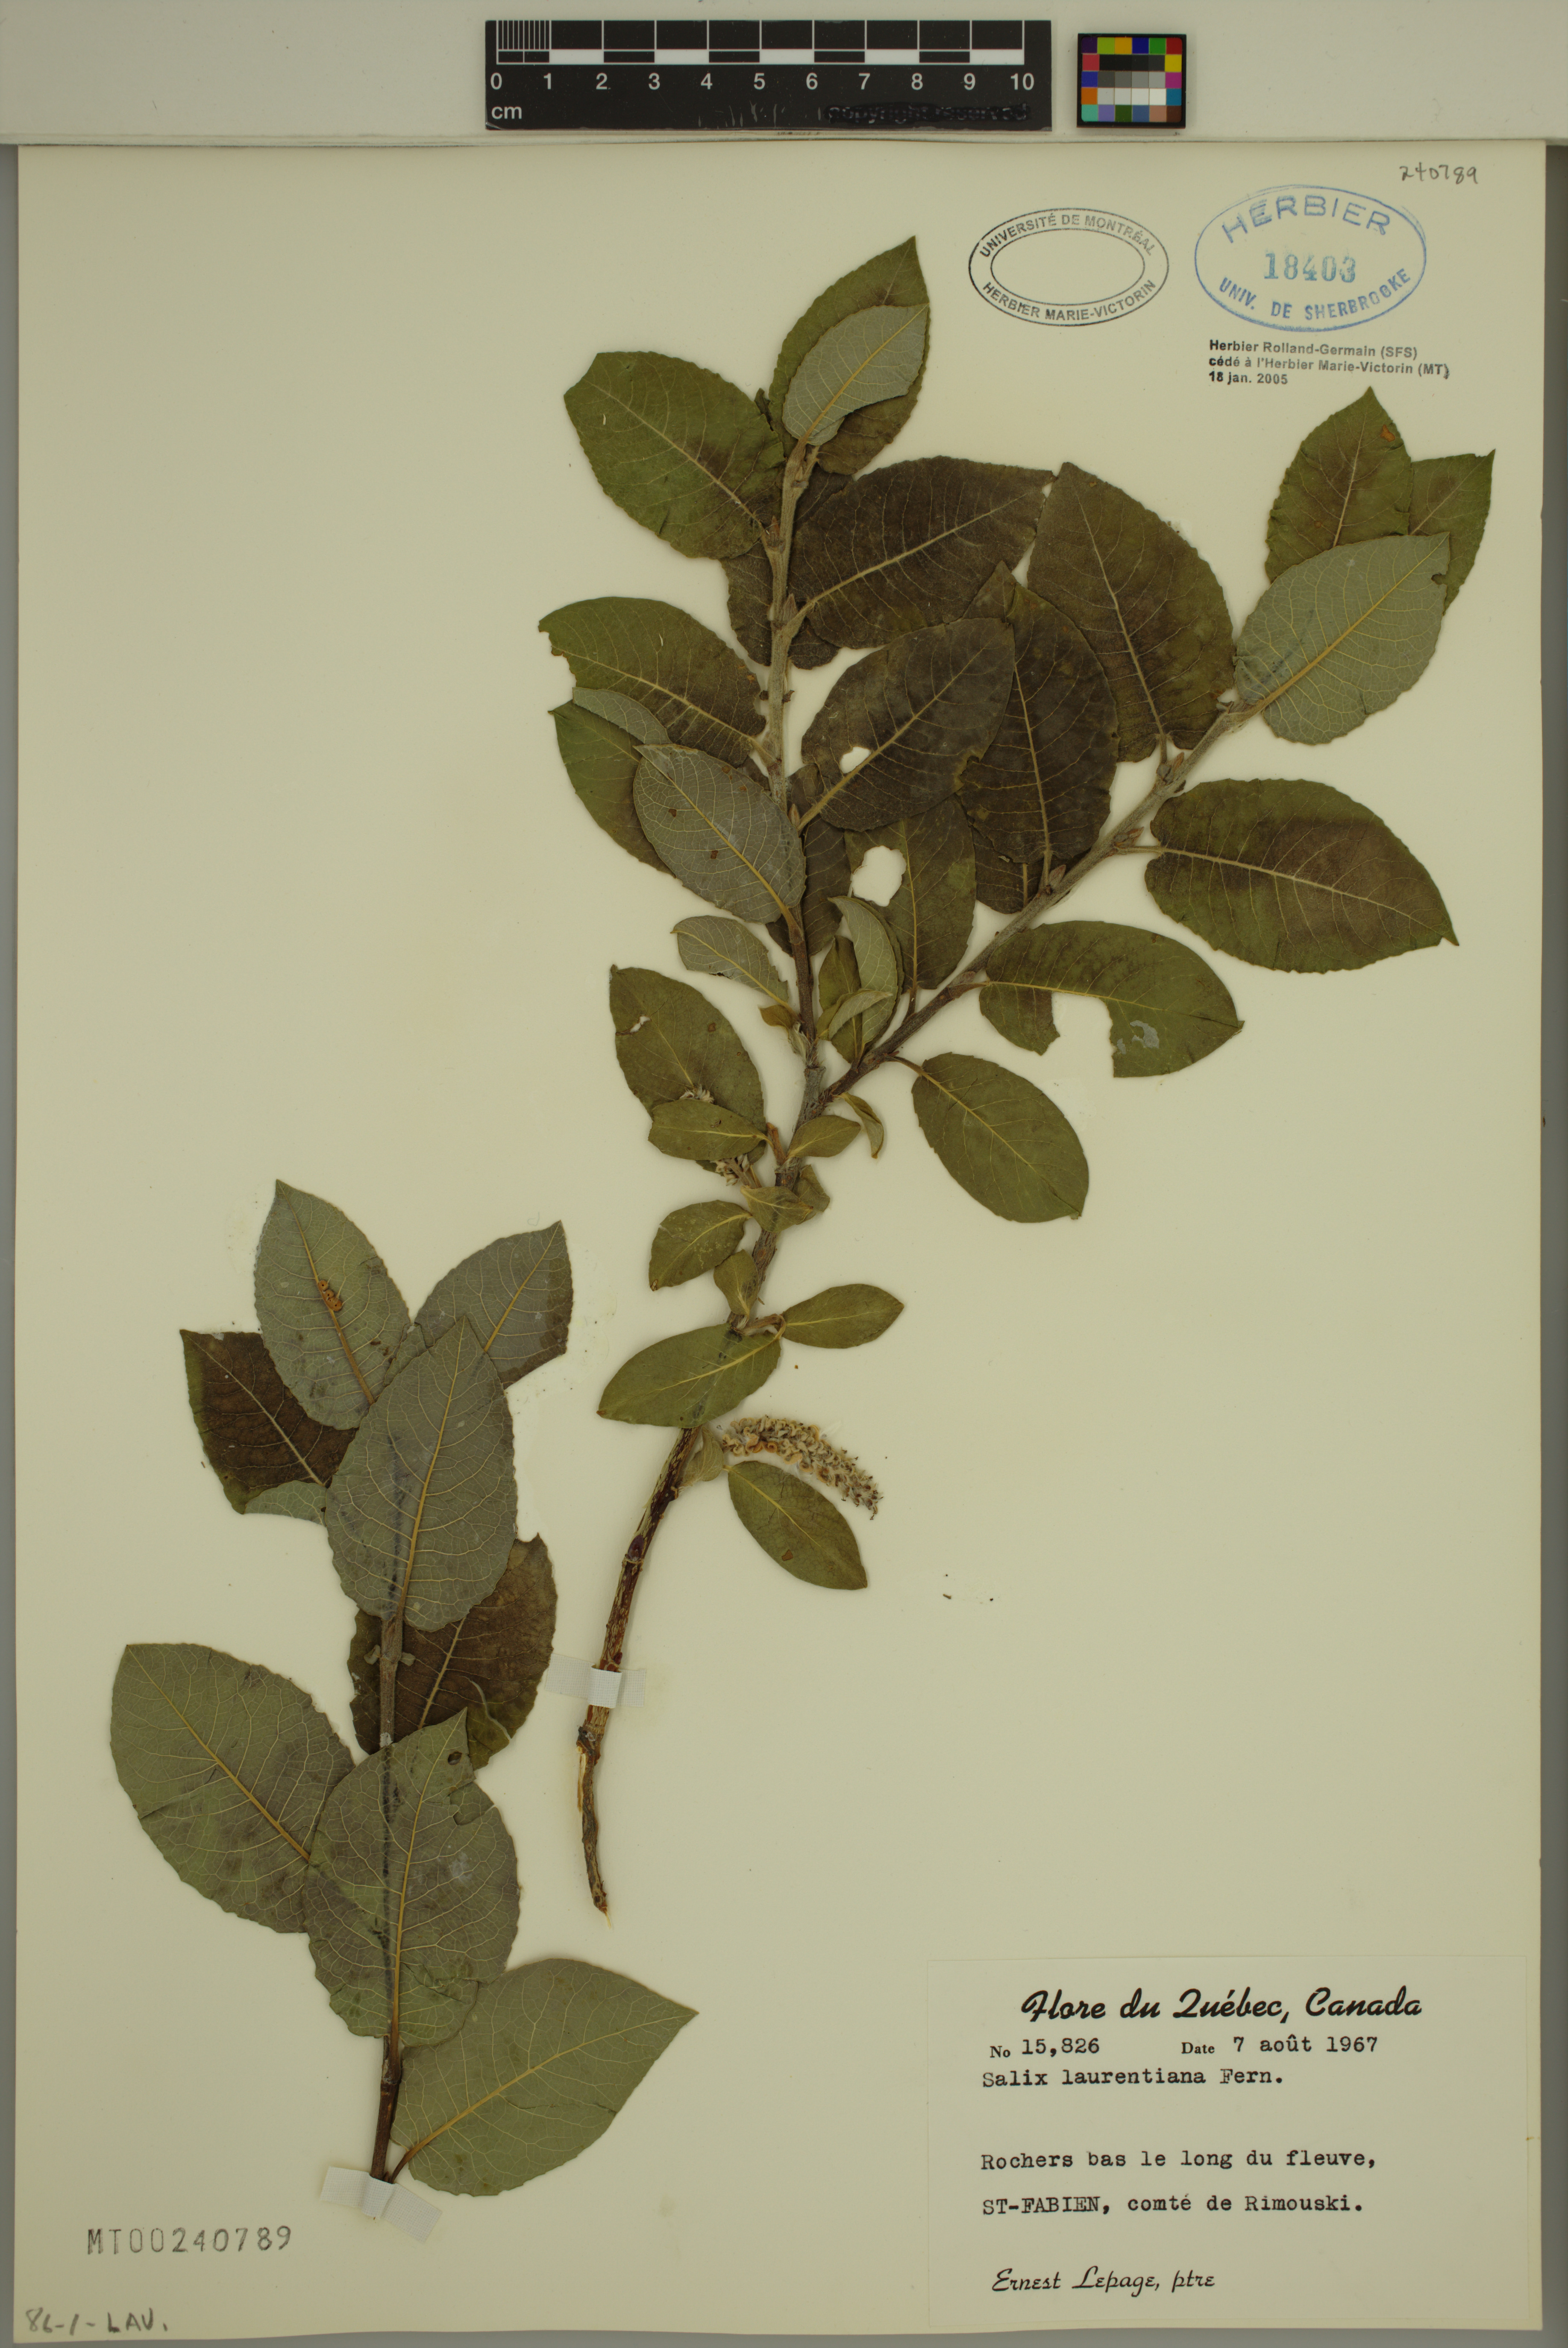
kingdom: Plantae
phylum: Tracheophyta
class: Magnoliopsida
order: Malpighiales
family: Salicaceae
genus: Salix
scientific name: Salix laurentiana
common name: Gulf of st. lawrence willow
